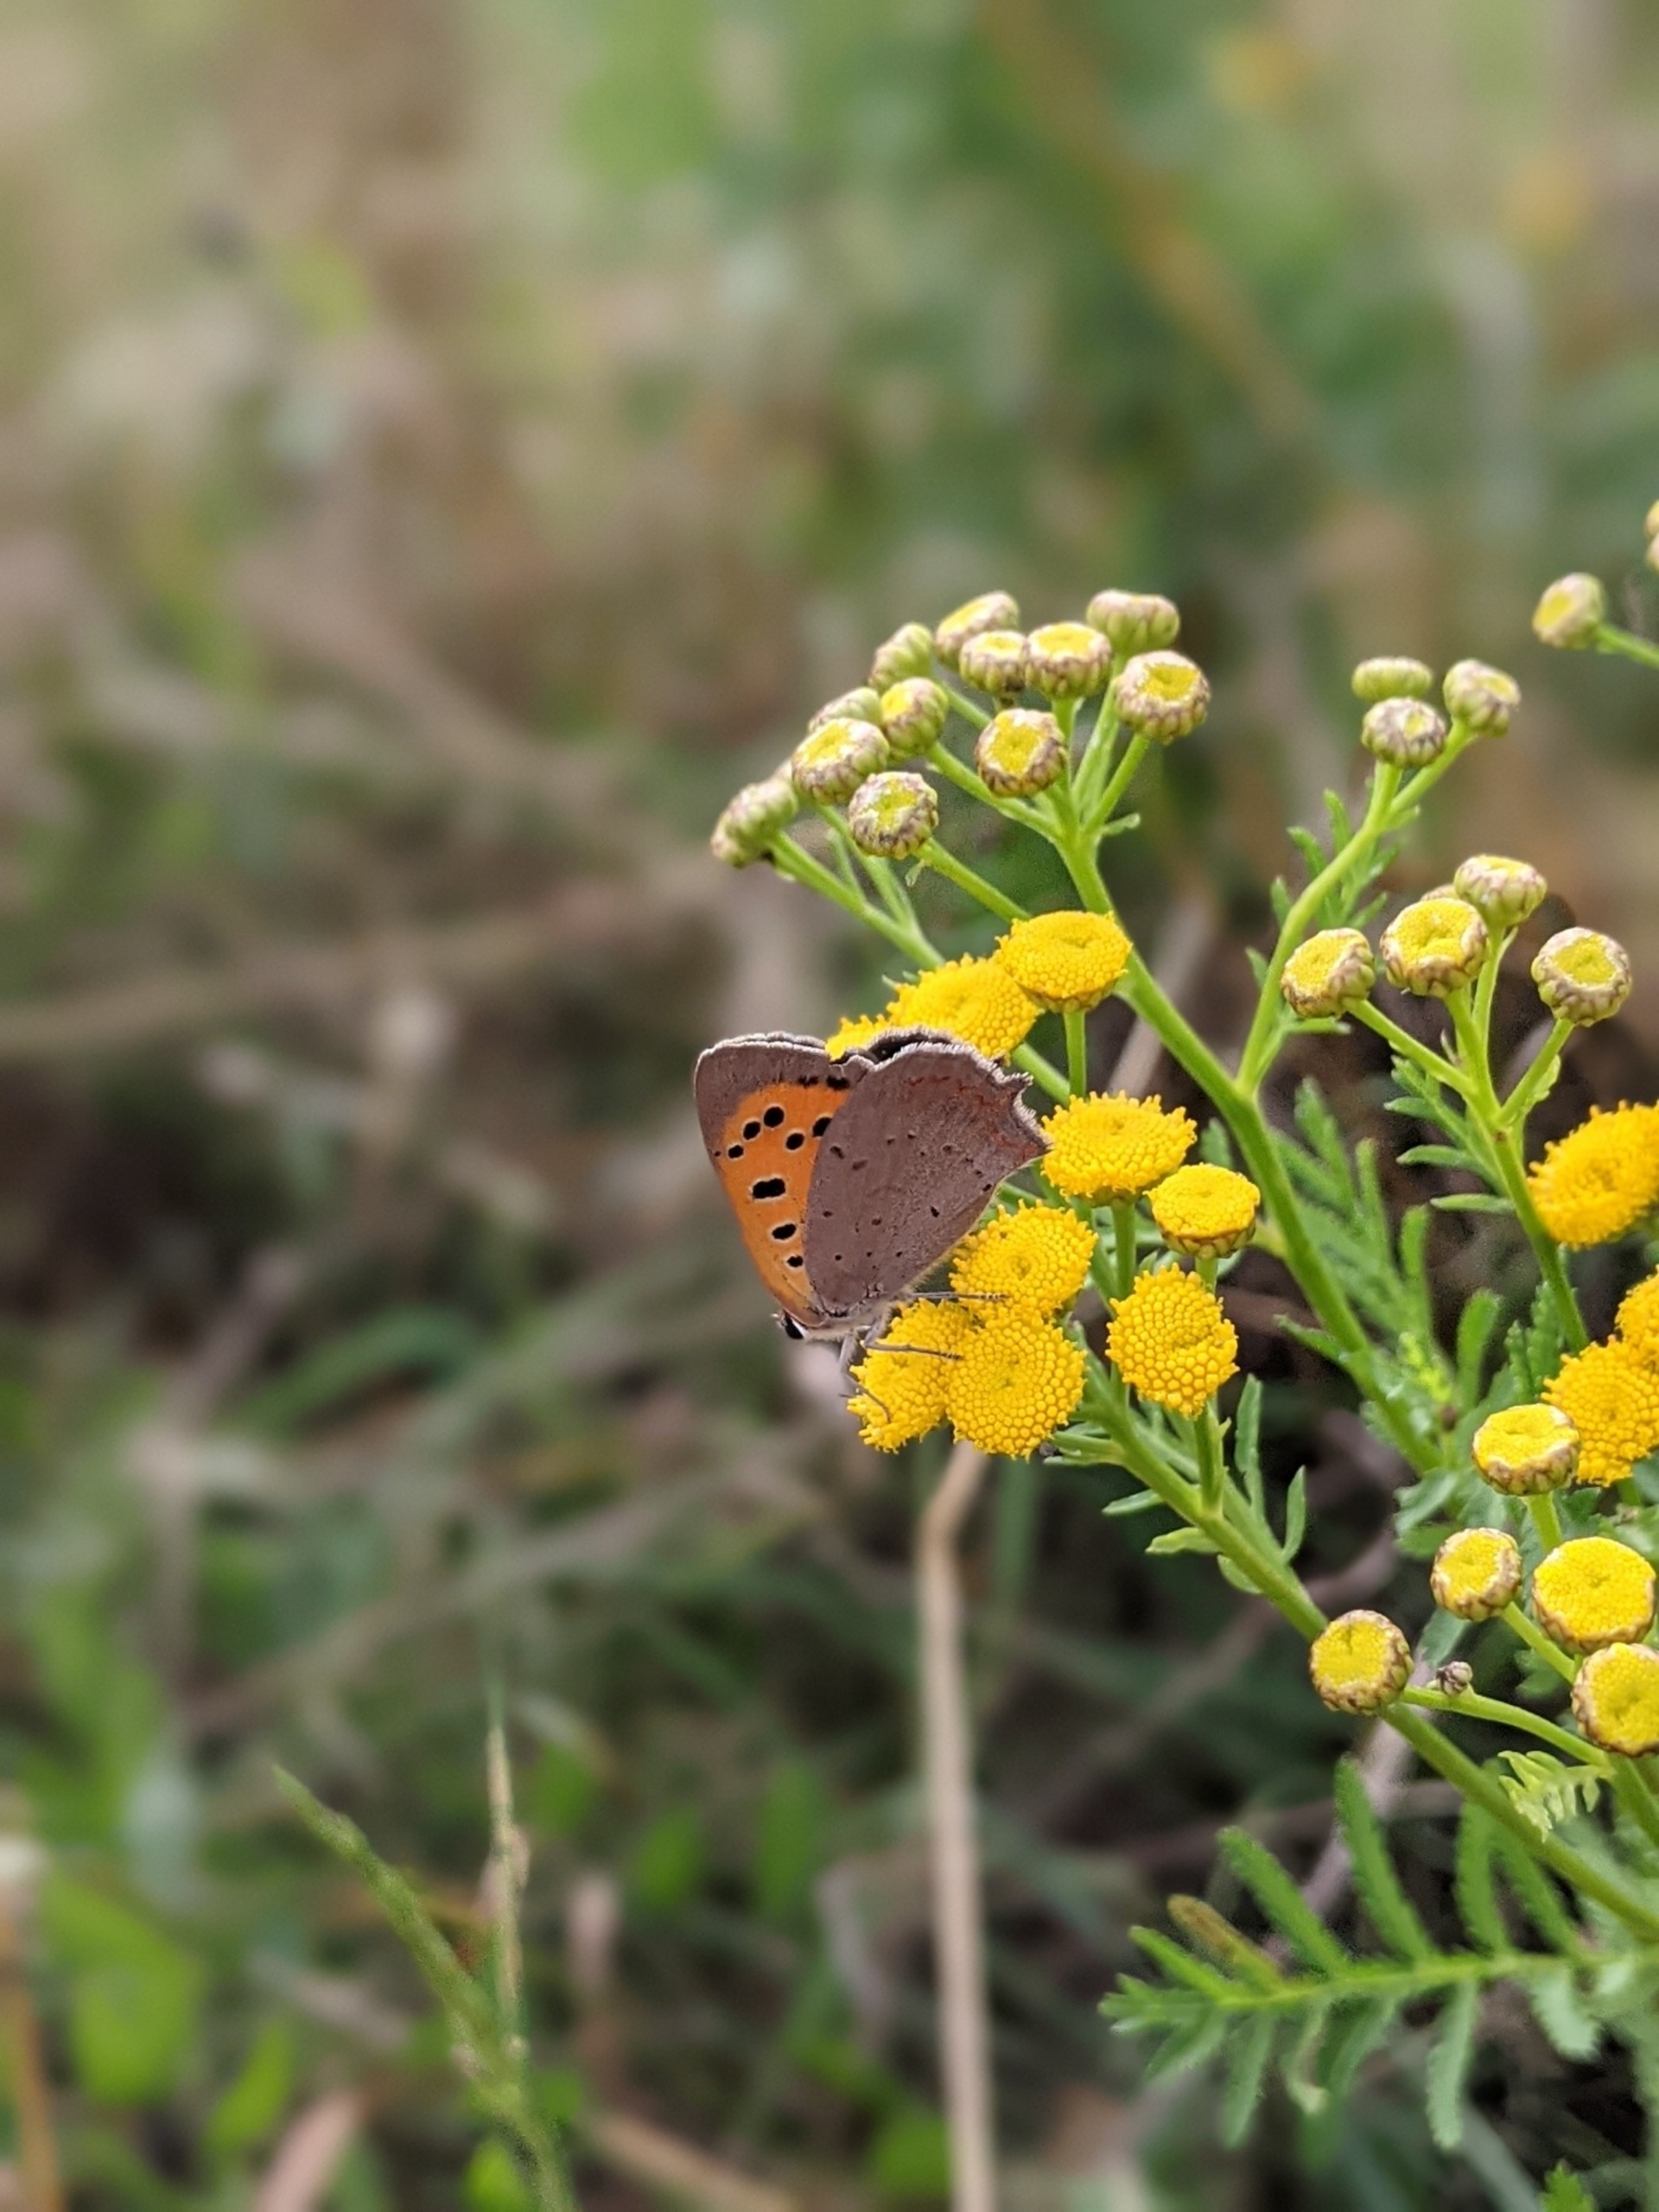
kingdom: Animalia
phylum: Arthropoda
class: Insecta
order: Lepidoptera
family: Lycaenidae
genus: Lycaena
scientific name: Lycaena phlaeas
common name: Lille ildfugl
